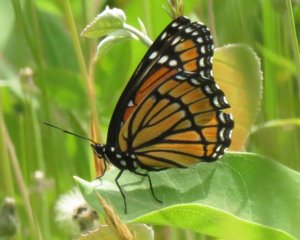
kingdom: Animalia
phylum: Arthropoda
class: Insecta
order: Lepidoptera
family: Nymphalidae
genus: Limenitis
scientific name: Limenitis archippus
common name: Viceroy
